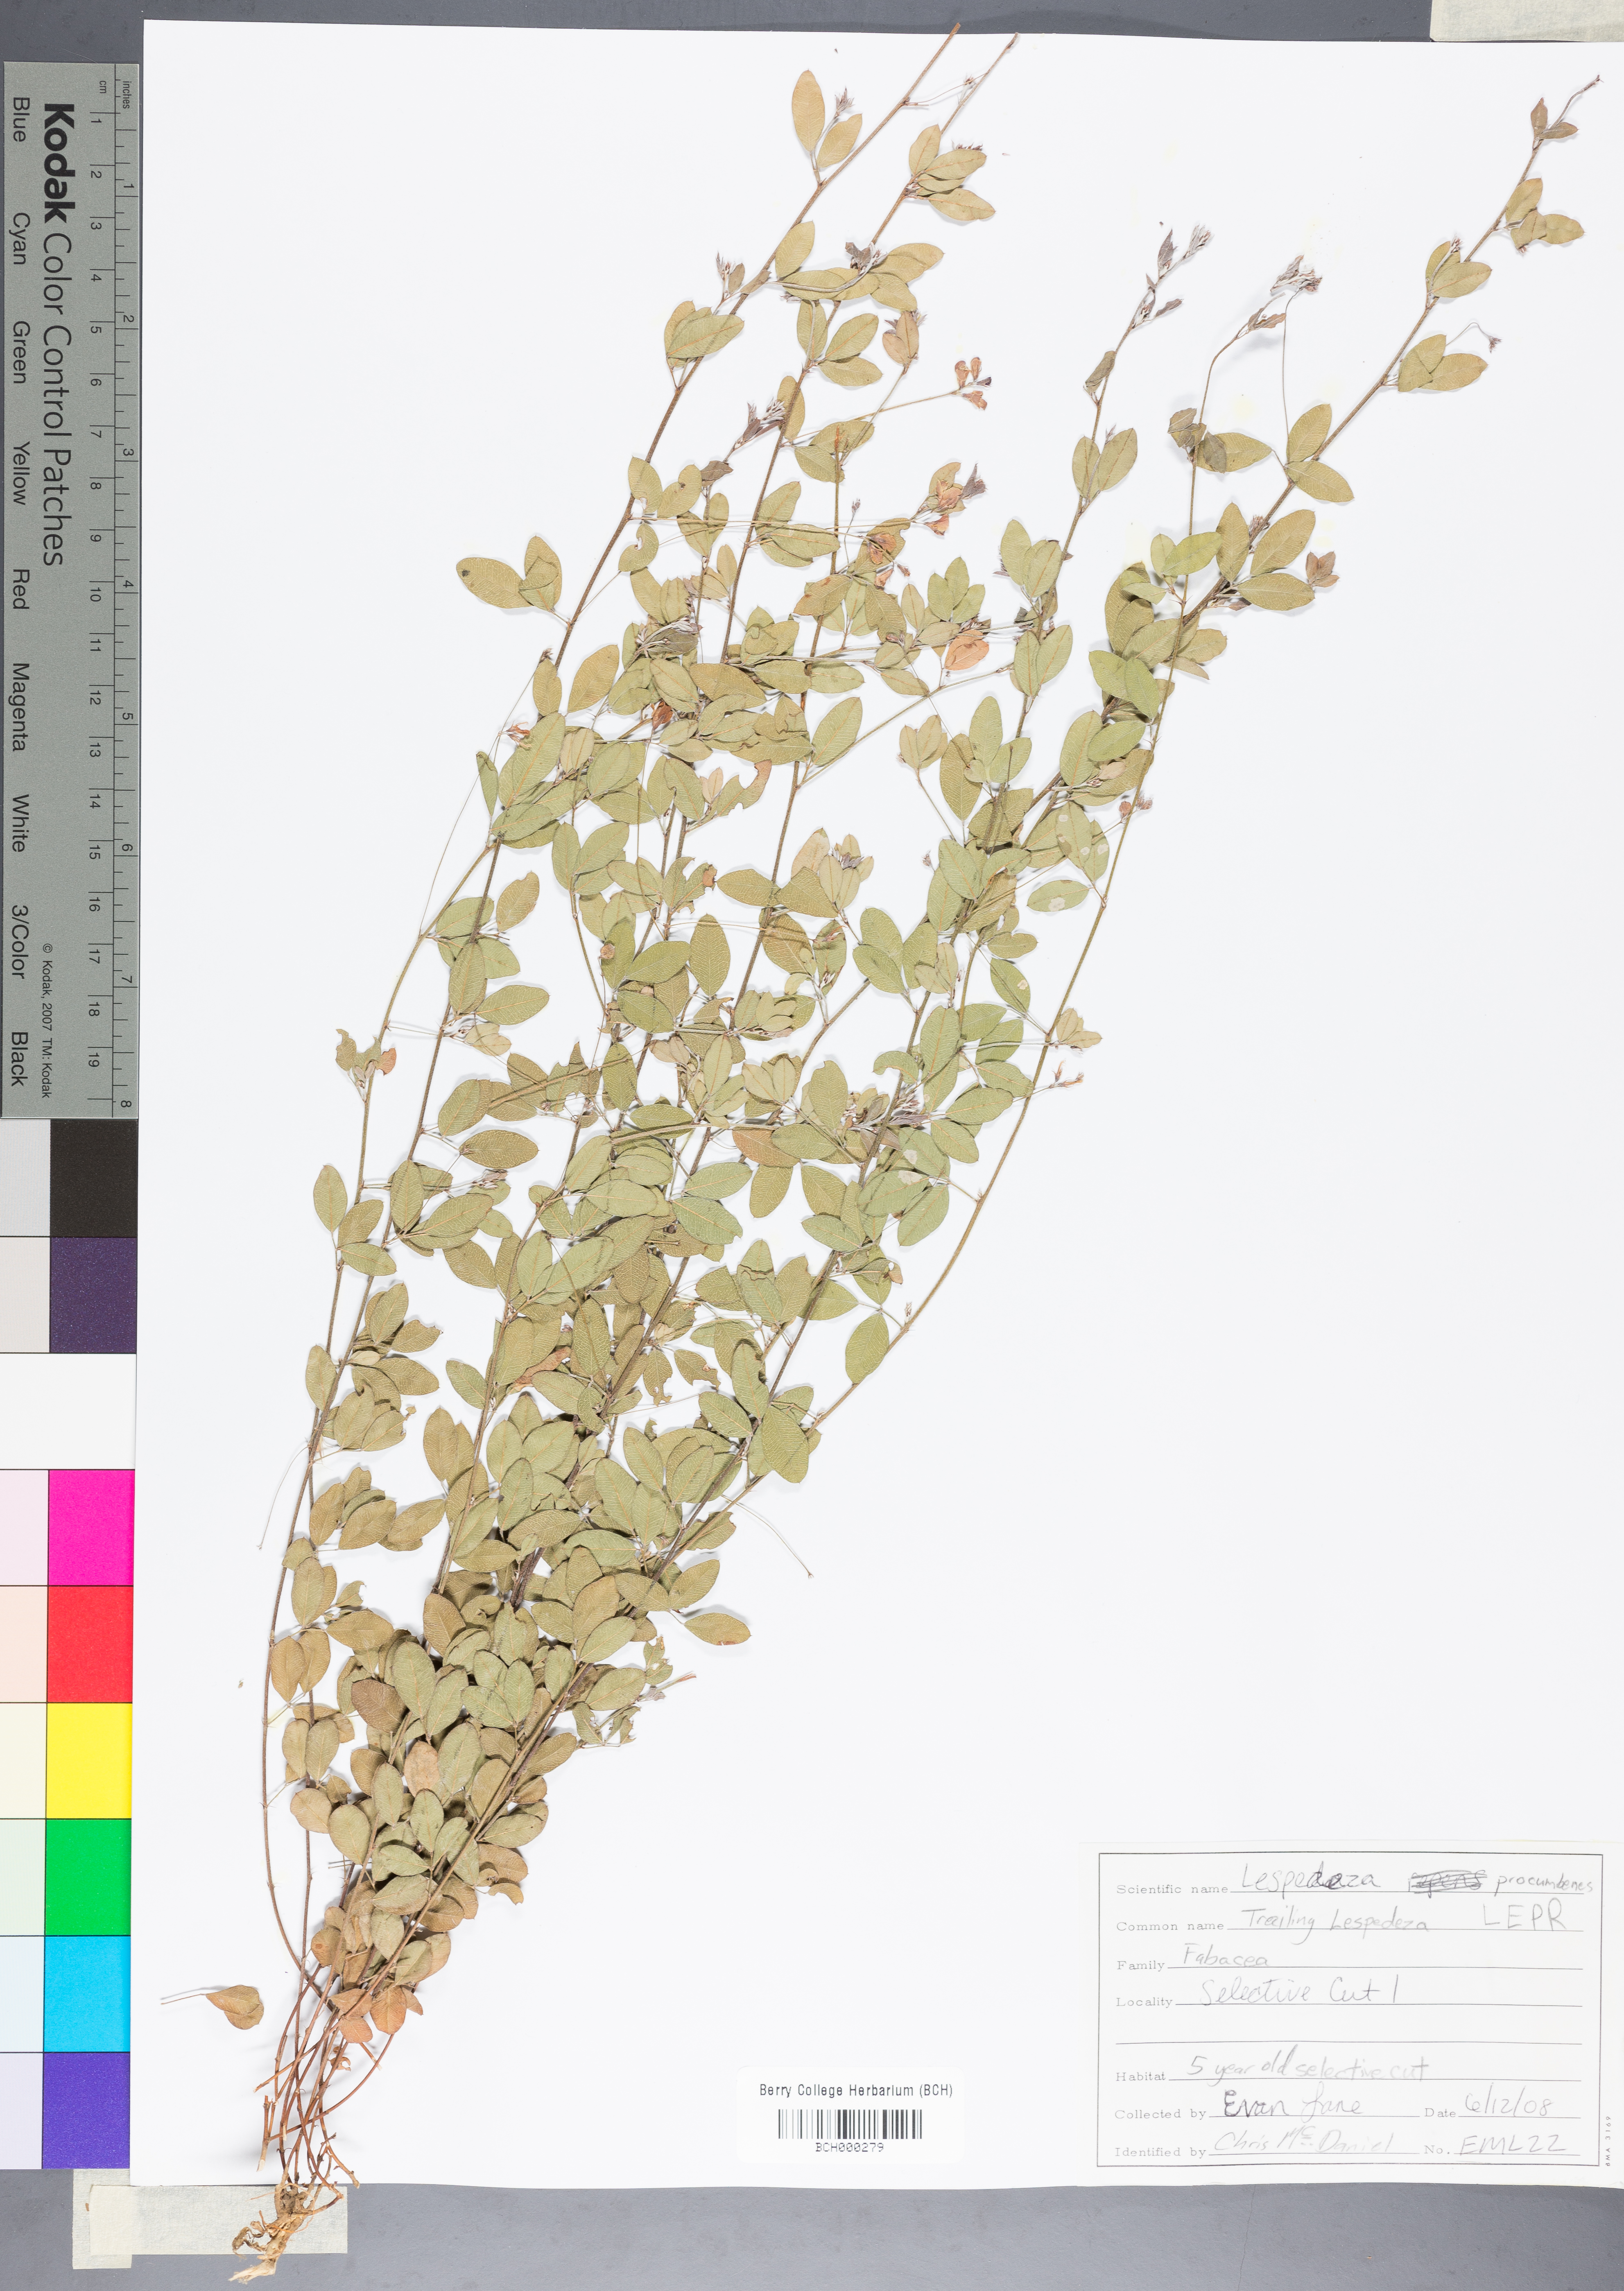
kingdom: Plantae
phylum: Tracheophyta
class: Magnoliopsida
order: Fabales
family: Fabaceae
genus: Lespedeza
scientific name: Lespedeza procumbens
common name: Downy trailing bush-clover
